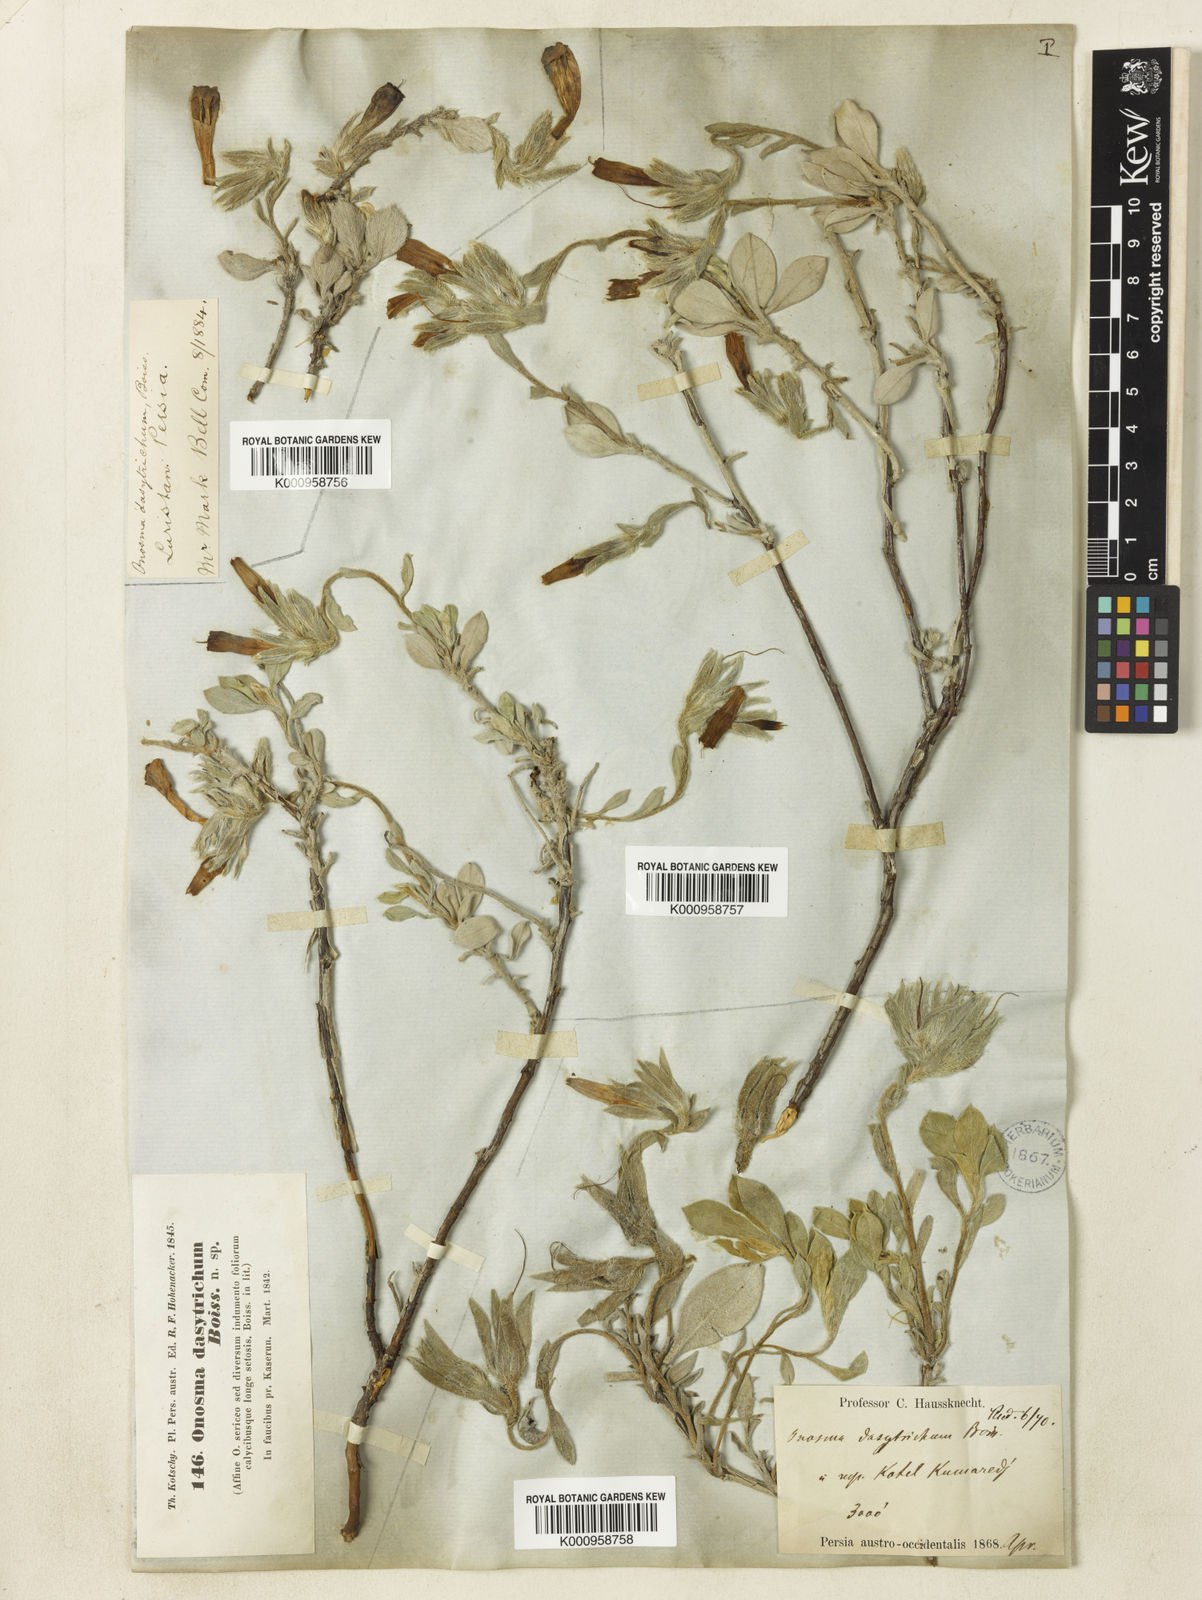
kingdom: Plantae
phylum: Tracheophyta
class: Magnoliopsida
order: Boraginales
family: Boraginaceae
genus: Onosma
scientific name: Onosma dasytricha
